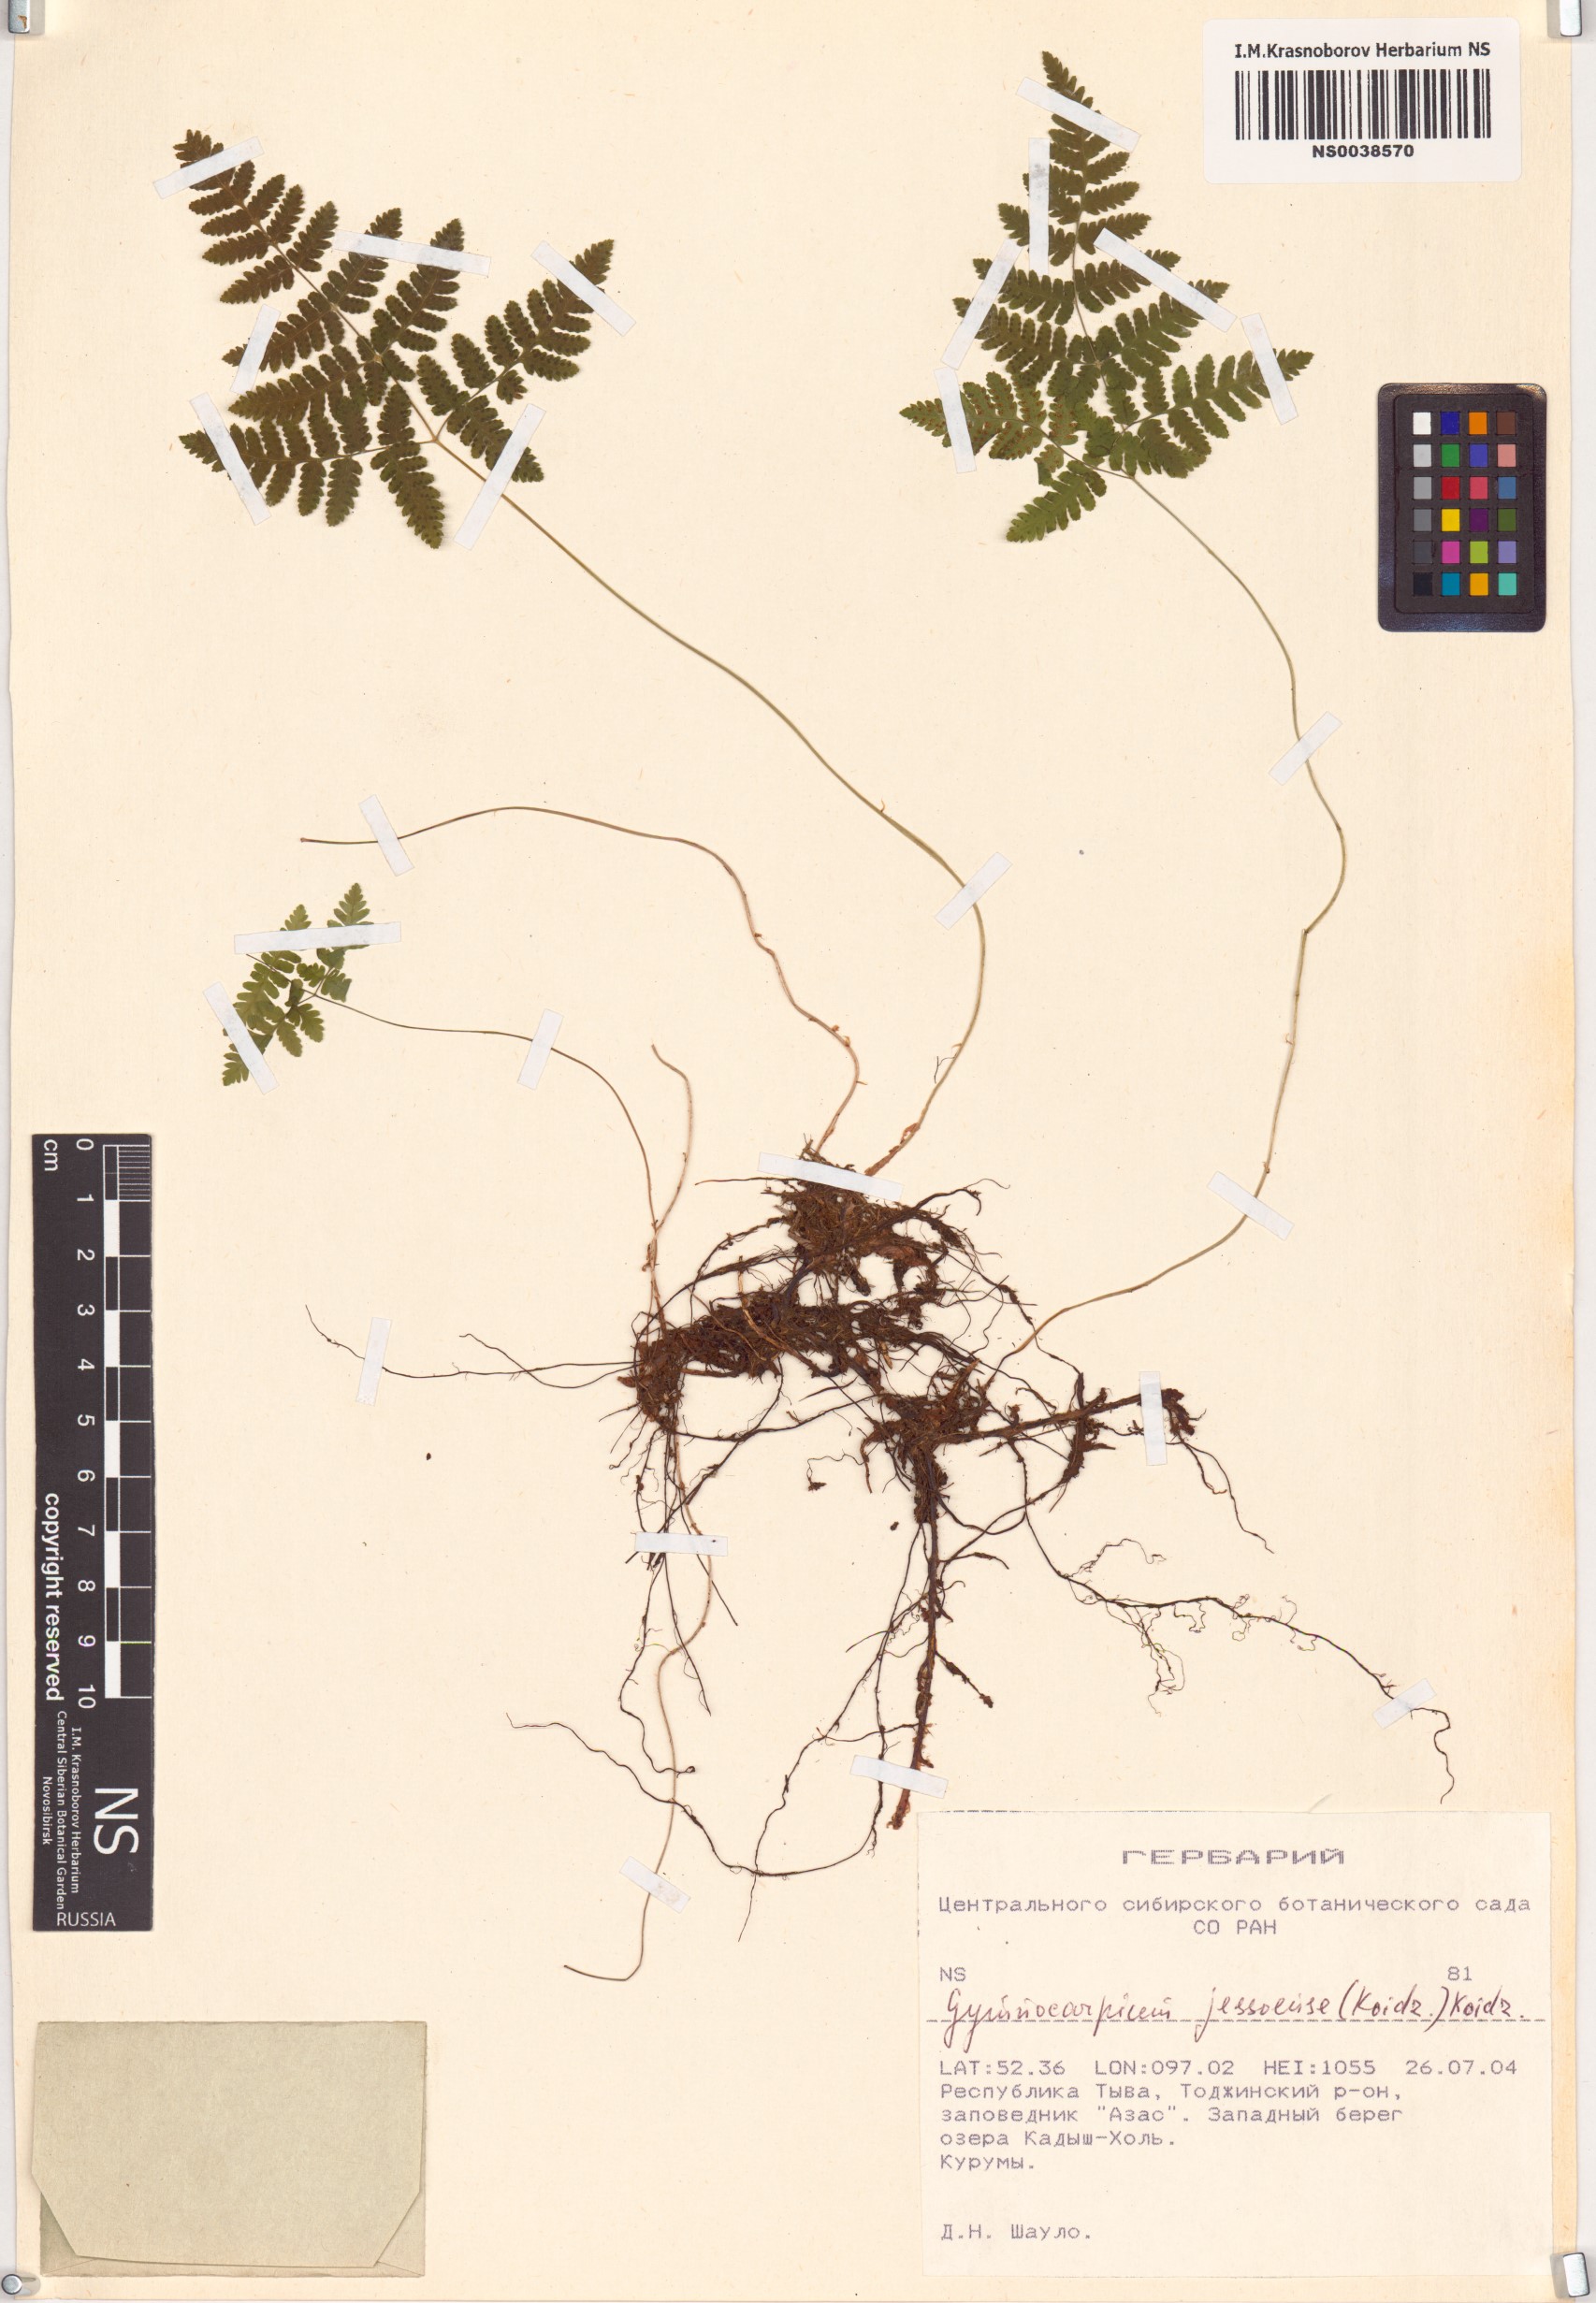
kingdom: Plantae
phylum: Tracheophyta
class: Polypodiopsida
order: Polypodiales
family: Cystopteridaceae
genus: Gymnocarpium
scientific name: Gymnocarpium jessoense
